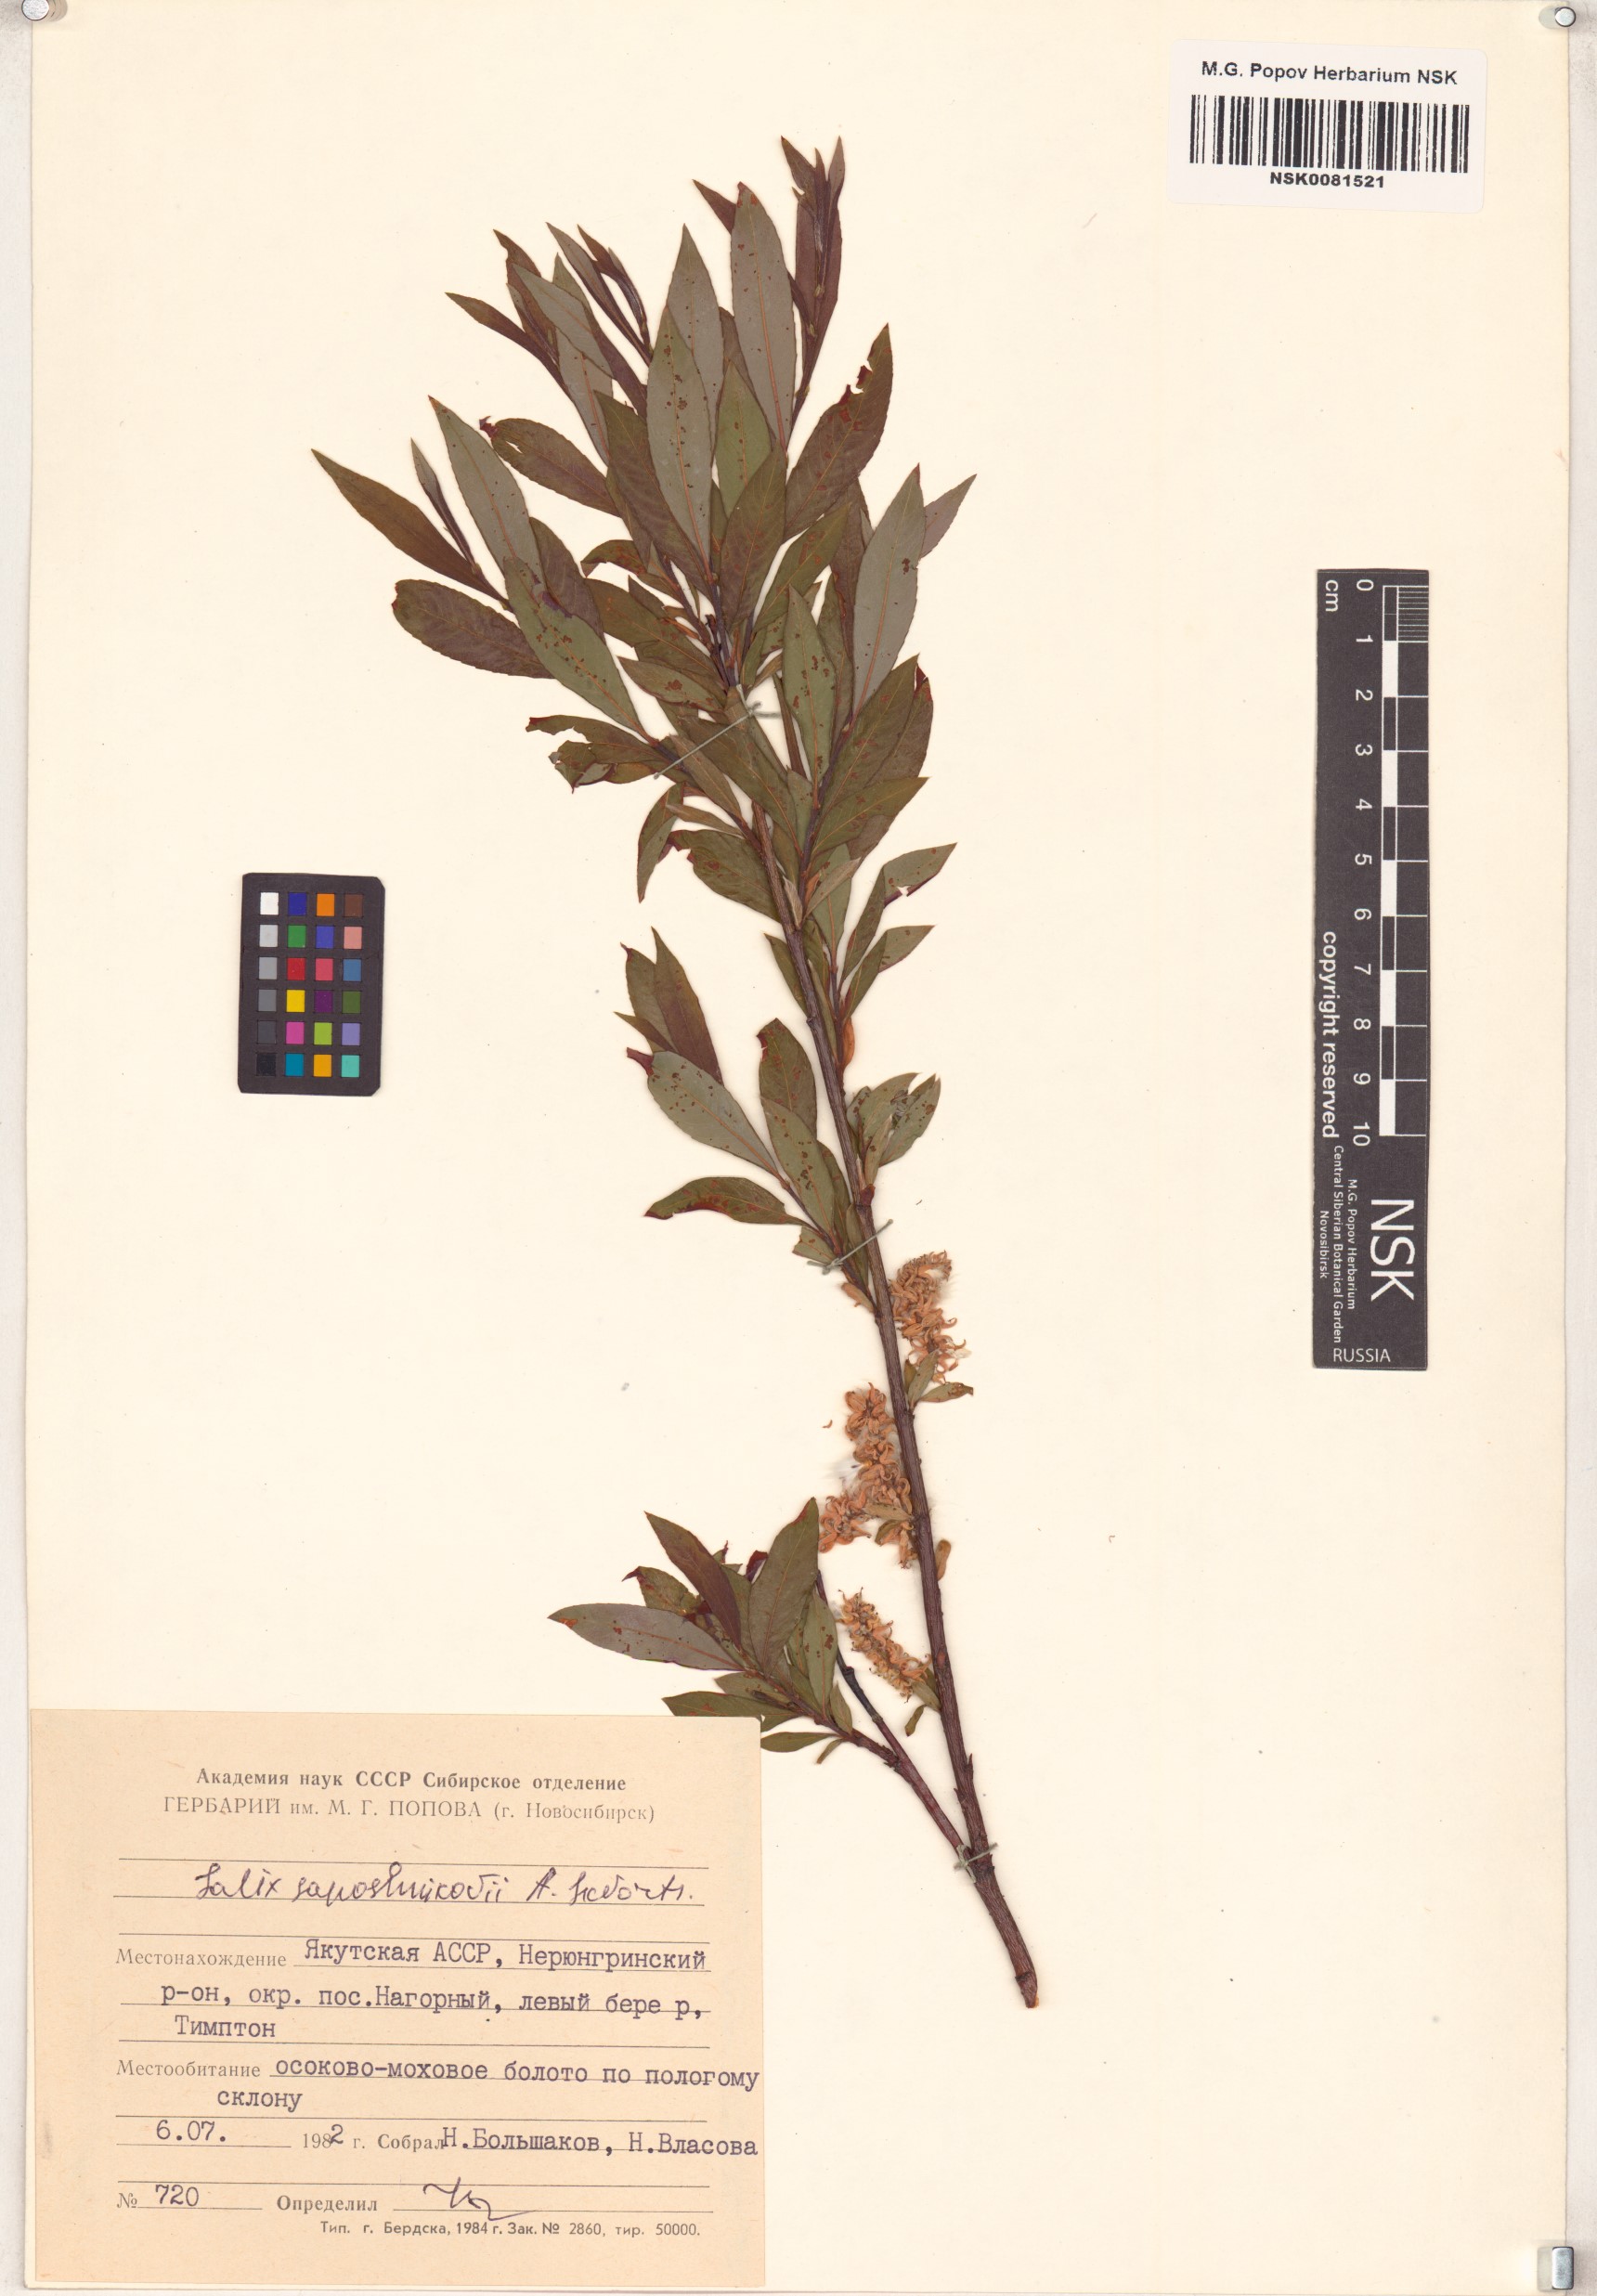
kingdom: Plantae
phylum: Tracheophyta
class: Magnoliopsida
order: Malpighiales
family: Salicaceae
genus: Salix
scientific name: Salix saposhnikovii
